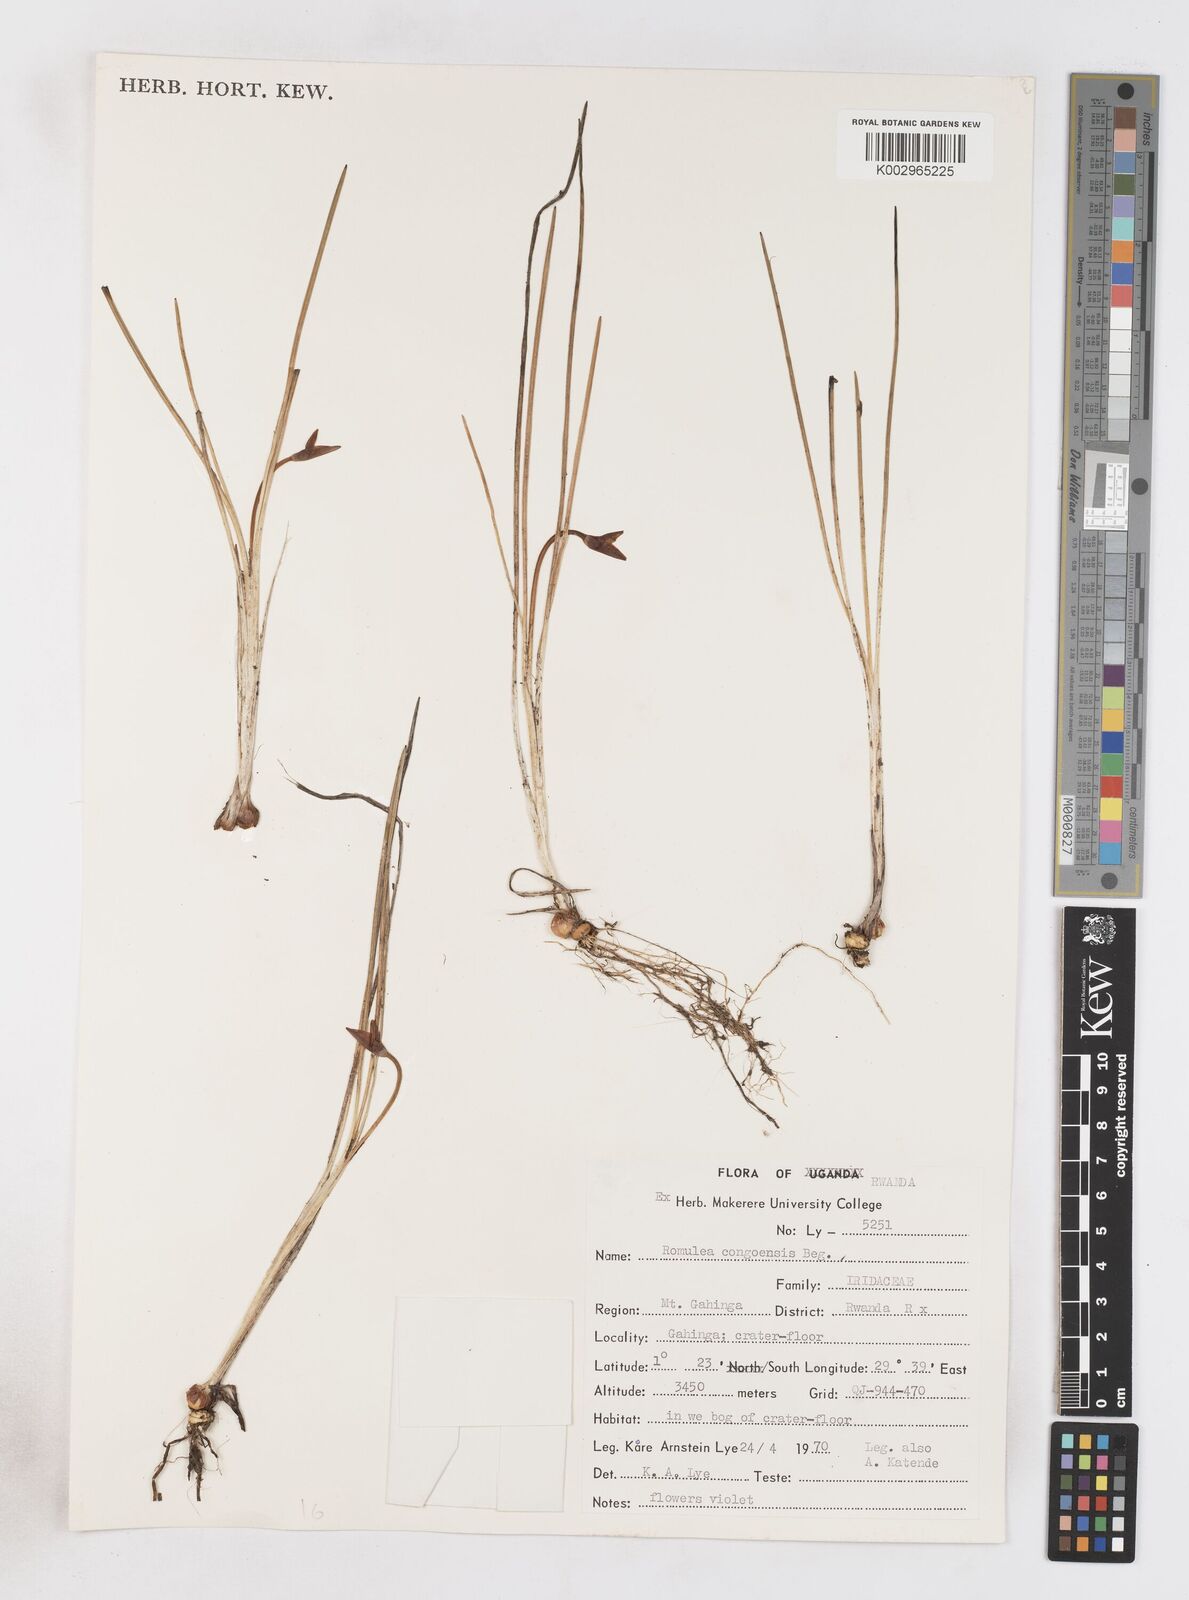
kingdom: Plantae
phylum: Tracheophyta
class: Liliopsida
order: Asparagales
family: Iridaceae
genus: Romulea
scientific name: Romulea congoensis
